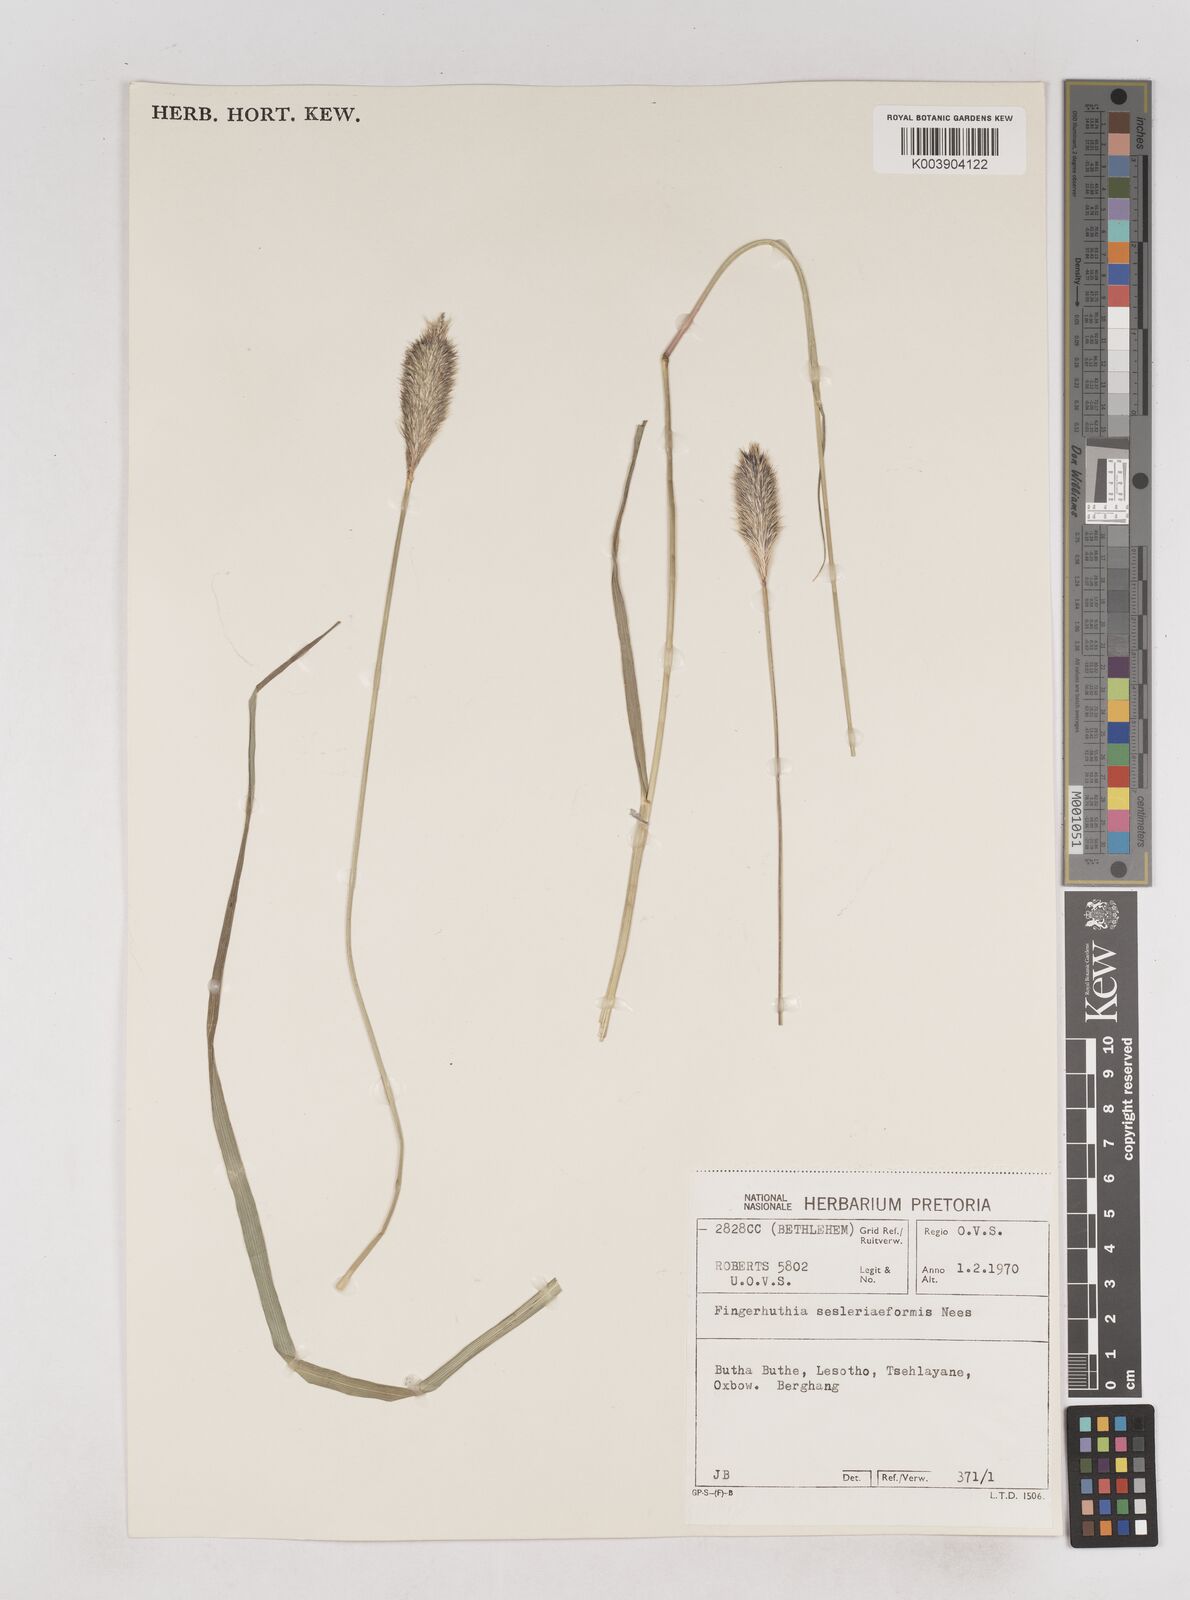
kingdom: Plantae
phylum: Tracheophyta
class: Liliopsida
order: Poales
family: Poaceae
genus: Fingerhuthia
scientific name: Fingerhuthia sesleriiformis
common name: Thimble grass
